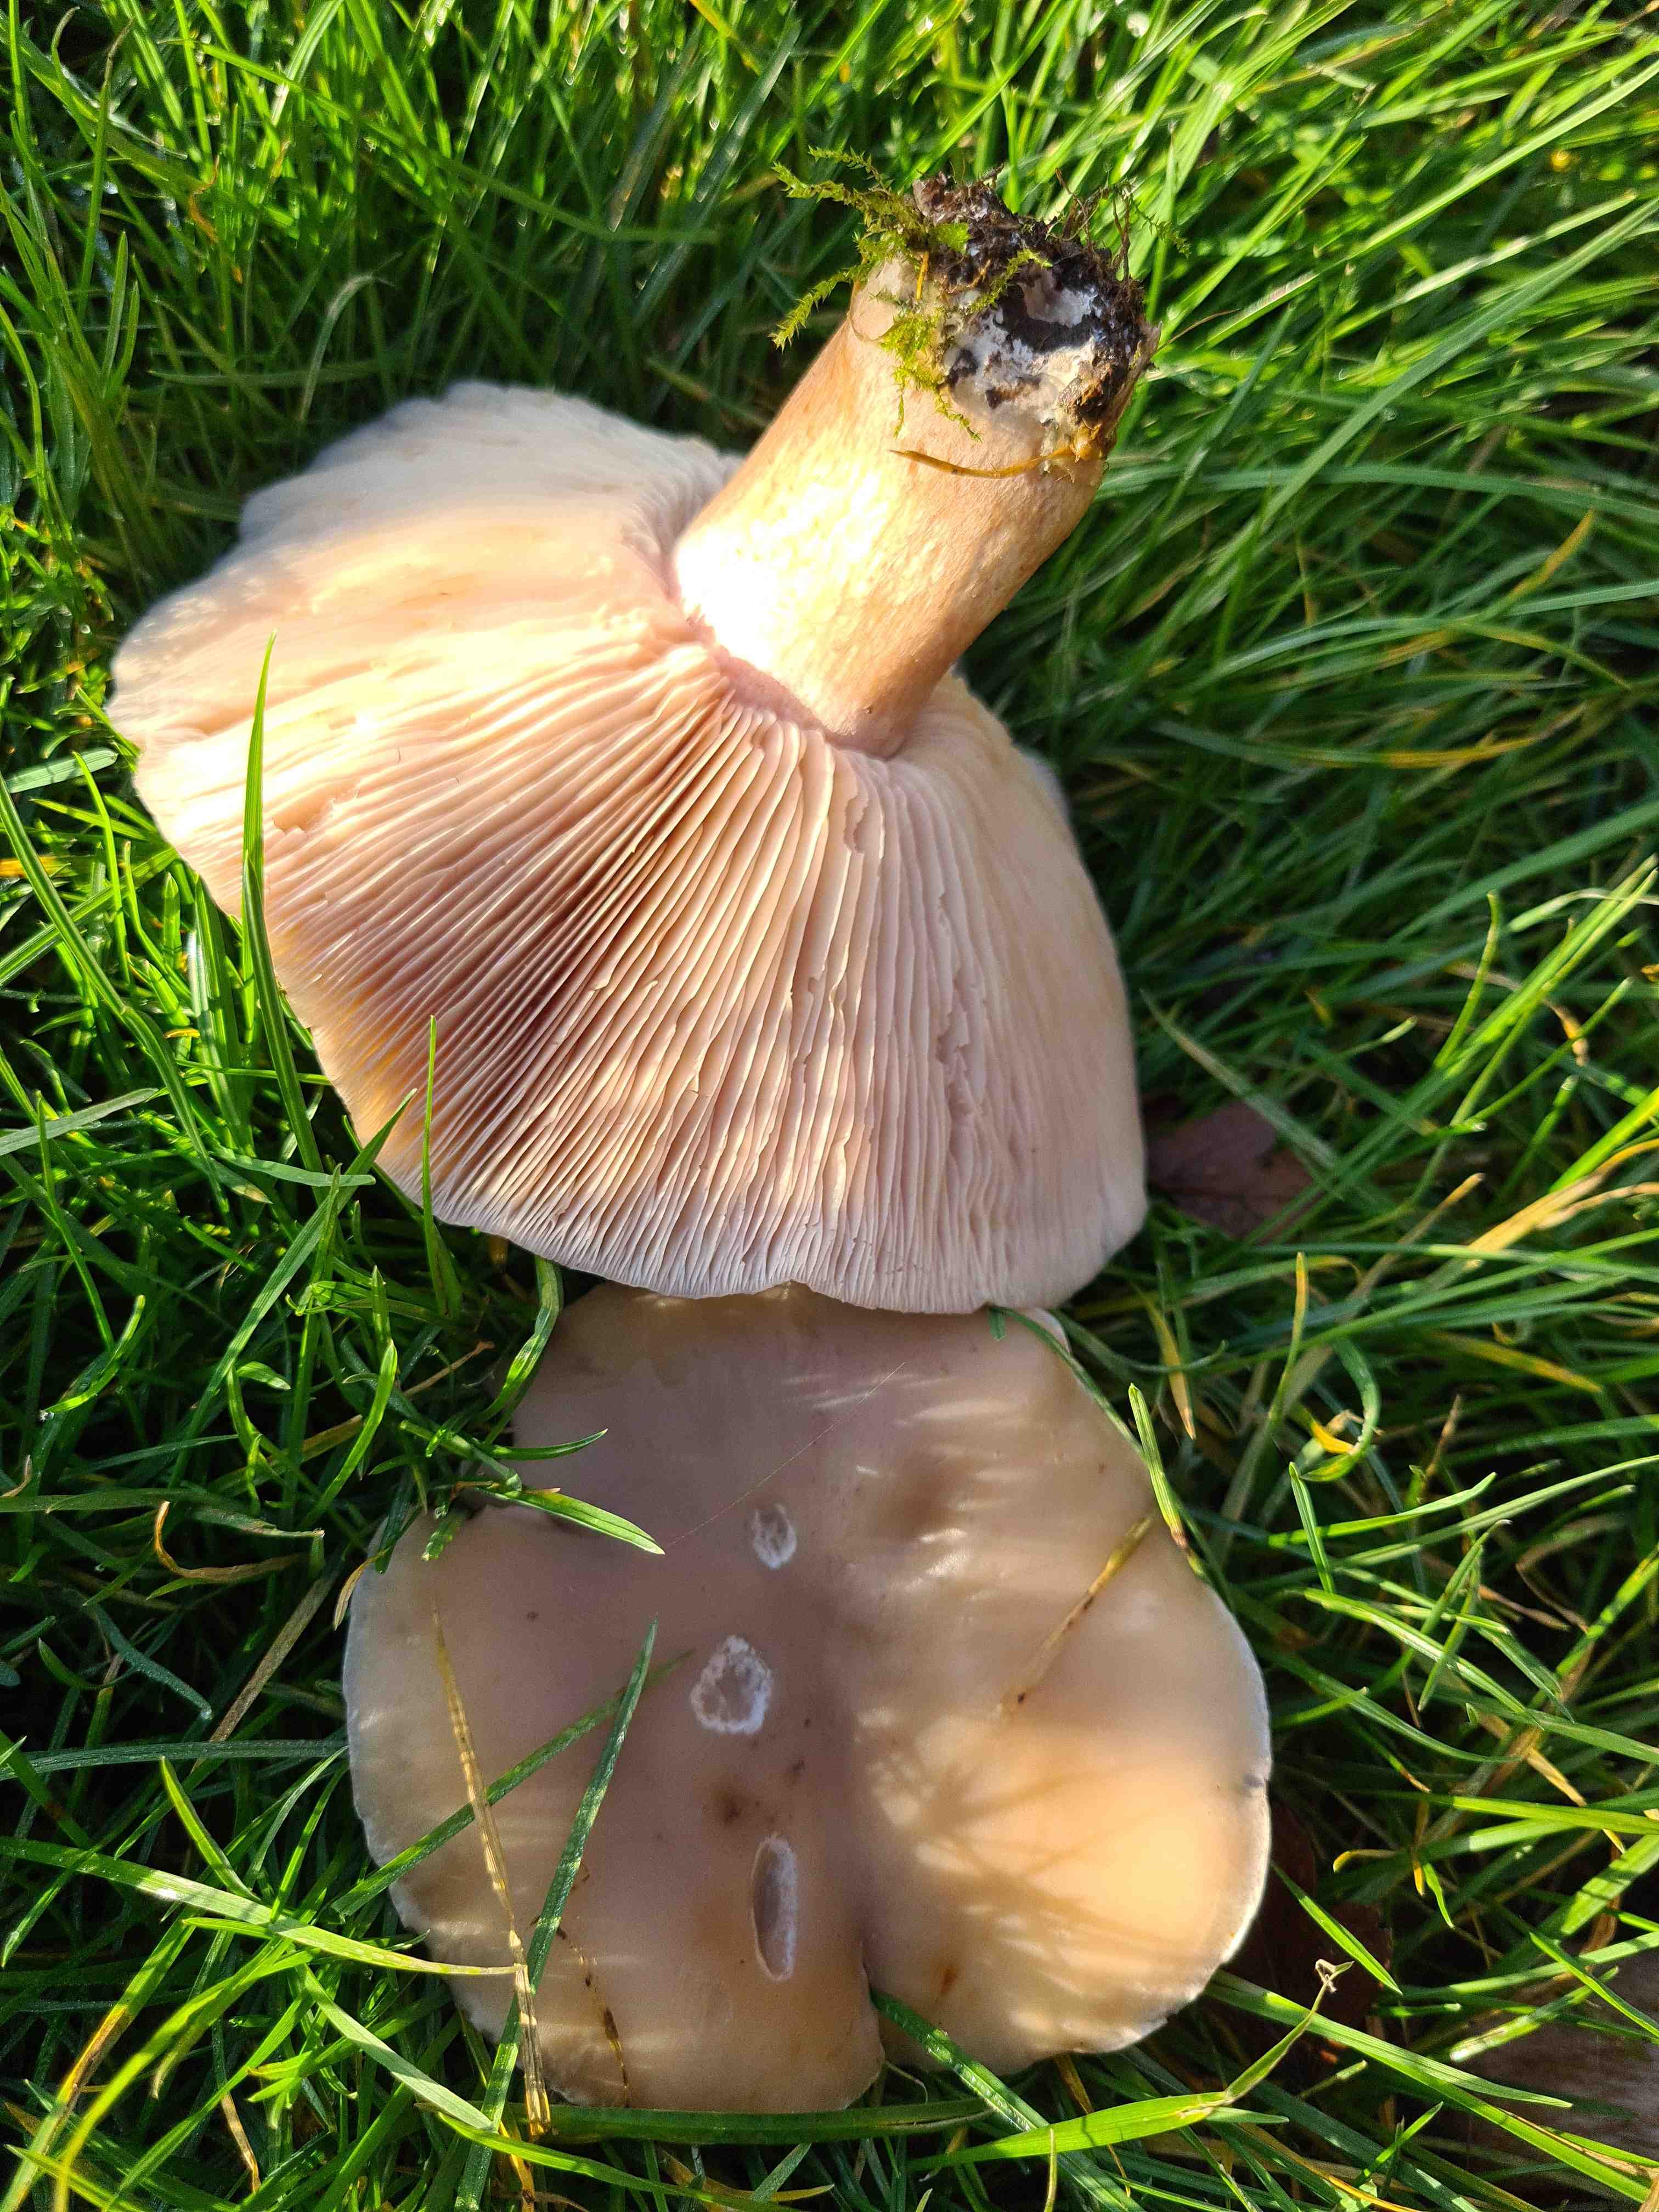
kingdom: Fungi
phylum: Basidiomycota
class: Agaricomycetes
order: Agaricales
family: Tricholomataceae
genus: Lepista
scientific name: Lepista
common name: hekseringshat
